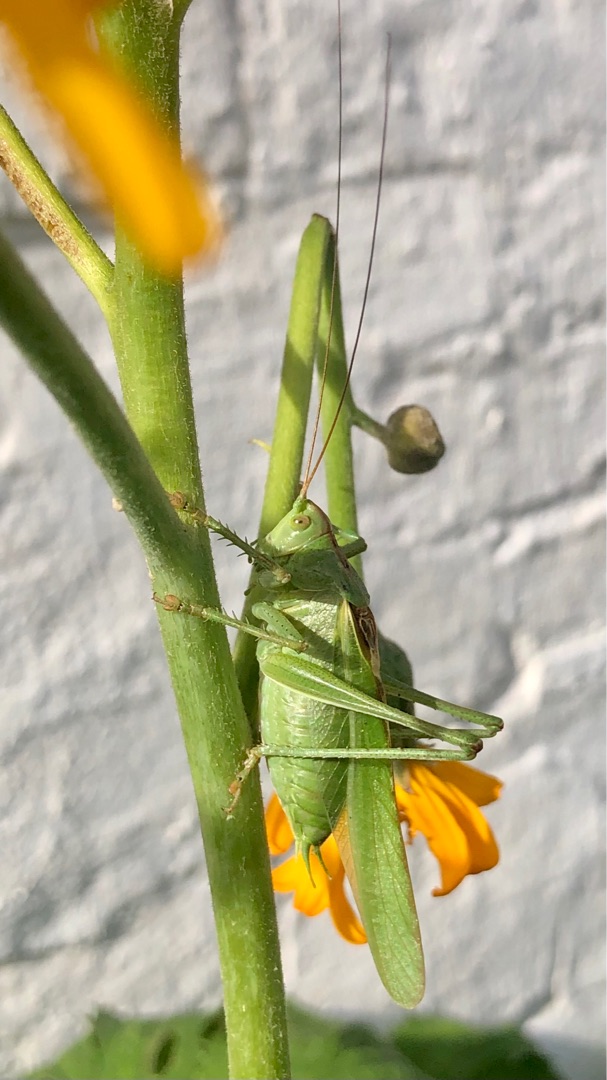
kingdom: Animalia
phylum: Arthropoda
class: Insecta
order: Orthoptera
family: Tettigoniidae
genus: Tettigonia
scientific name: Tettigonia viridissima
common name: Stor grøn løvgræshoppe
